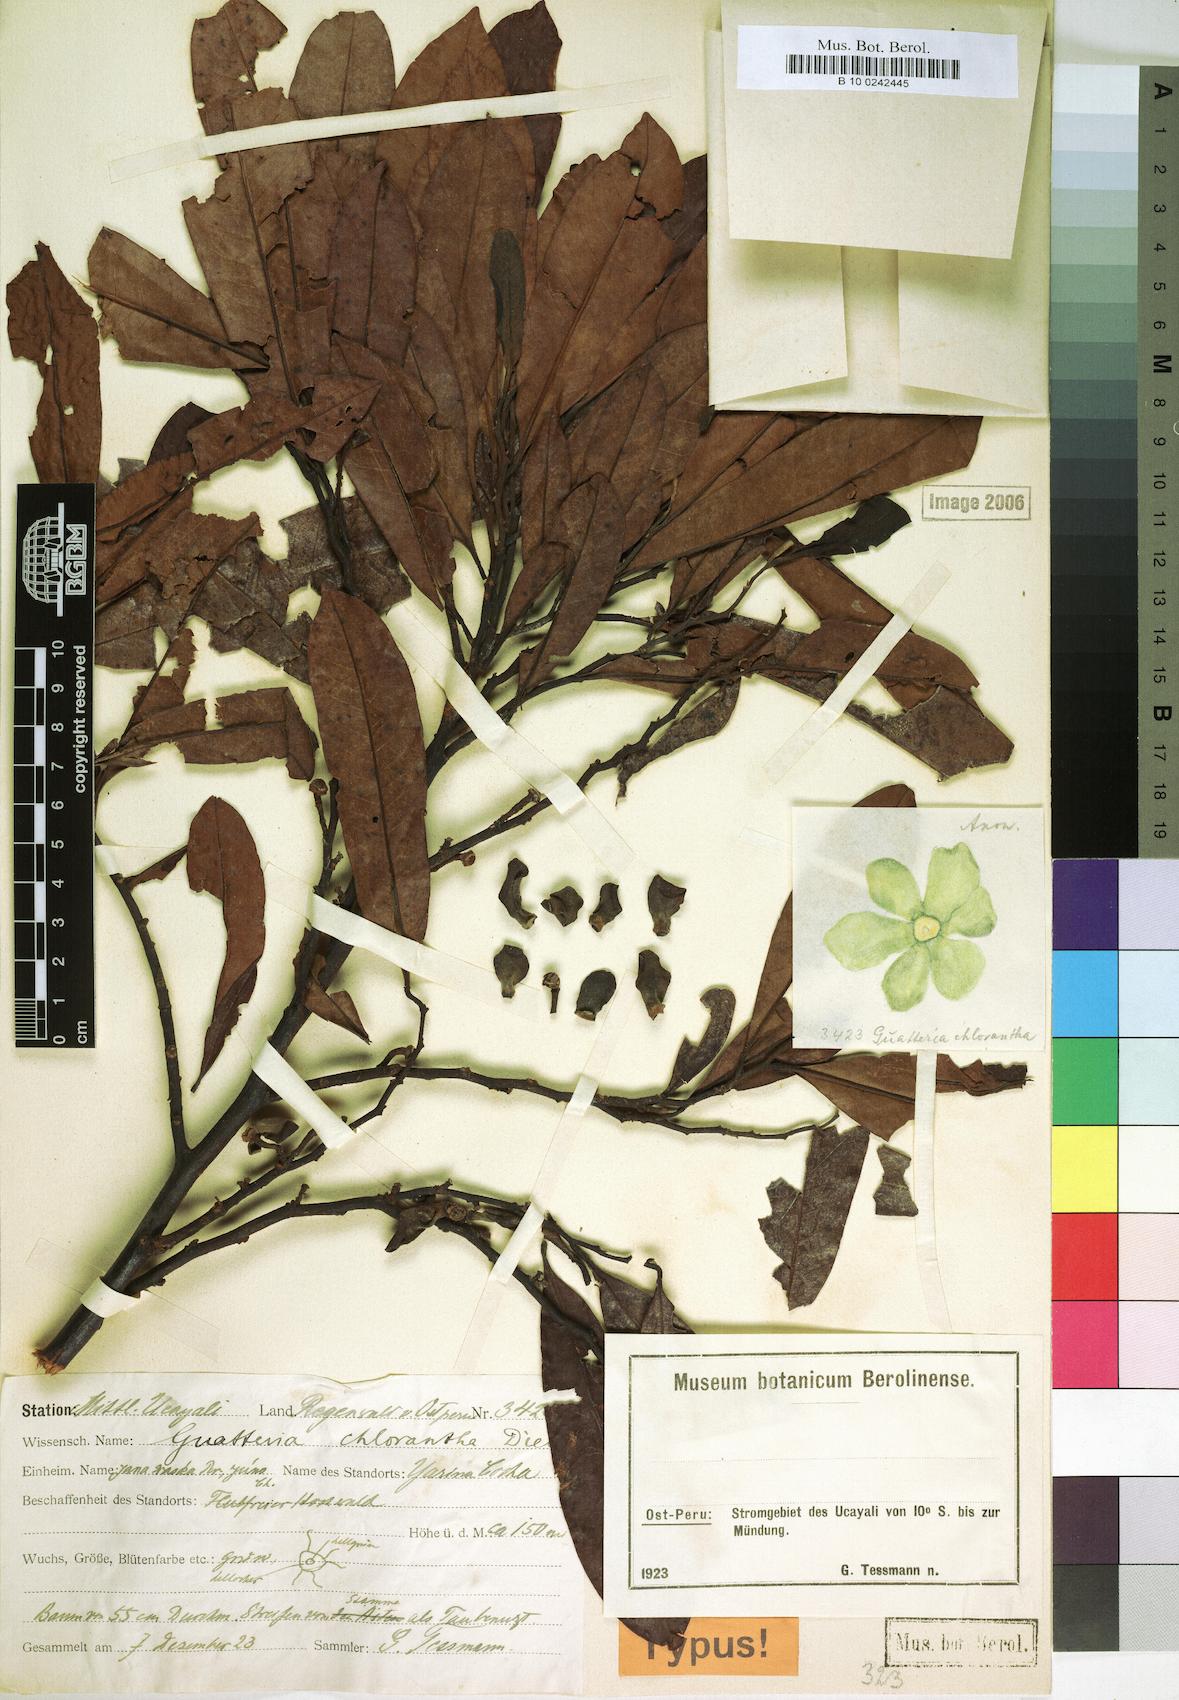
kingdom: Plantae
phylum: Tracheophyta
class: Magnoliopsida
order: Magnoliales
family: Annonaceae
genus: Guatteria
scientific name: Guatteria modesta
